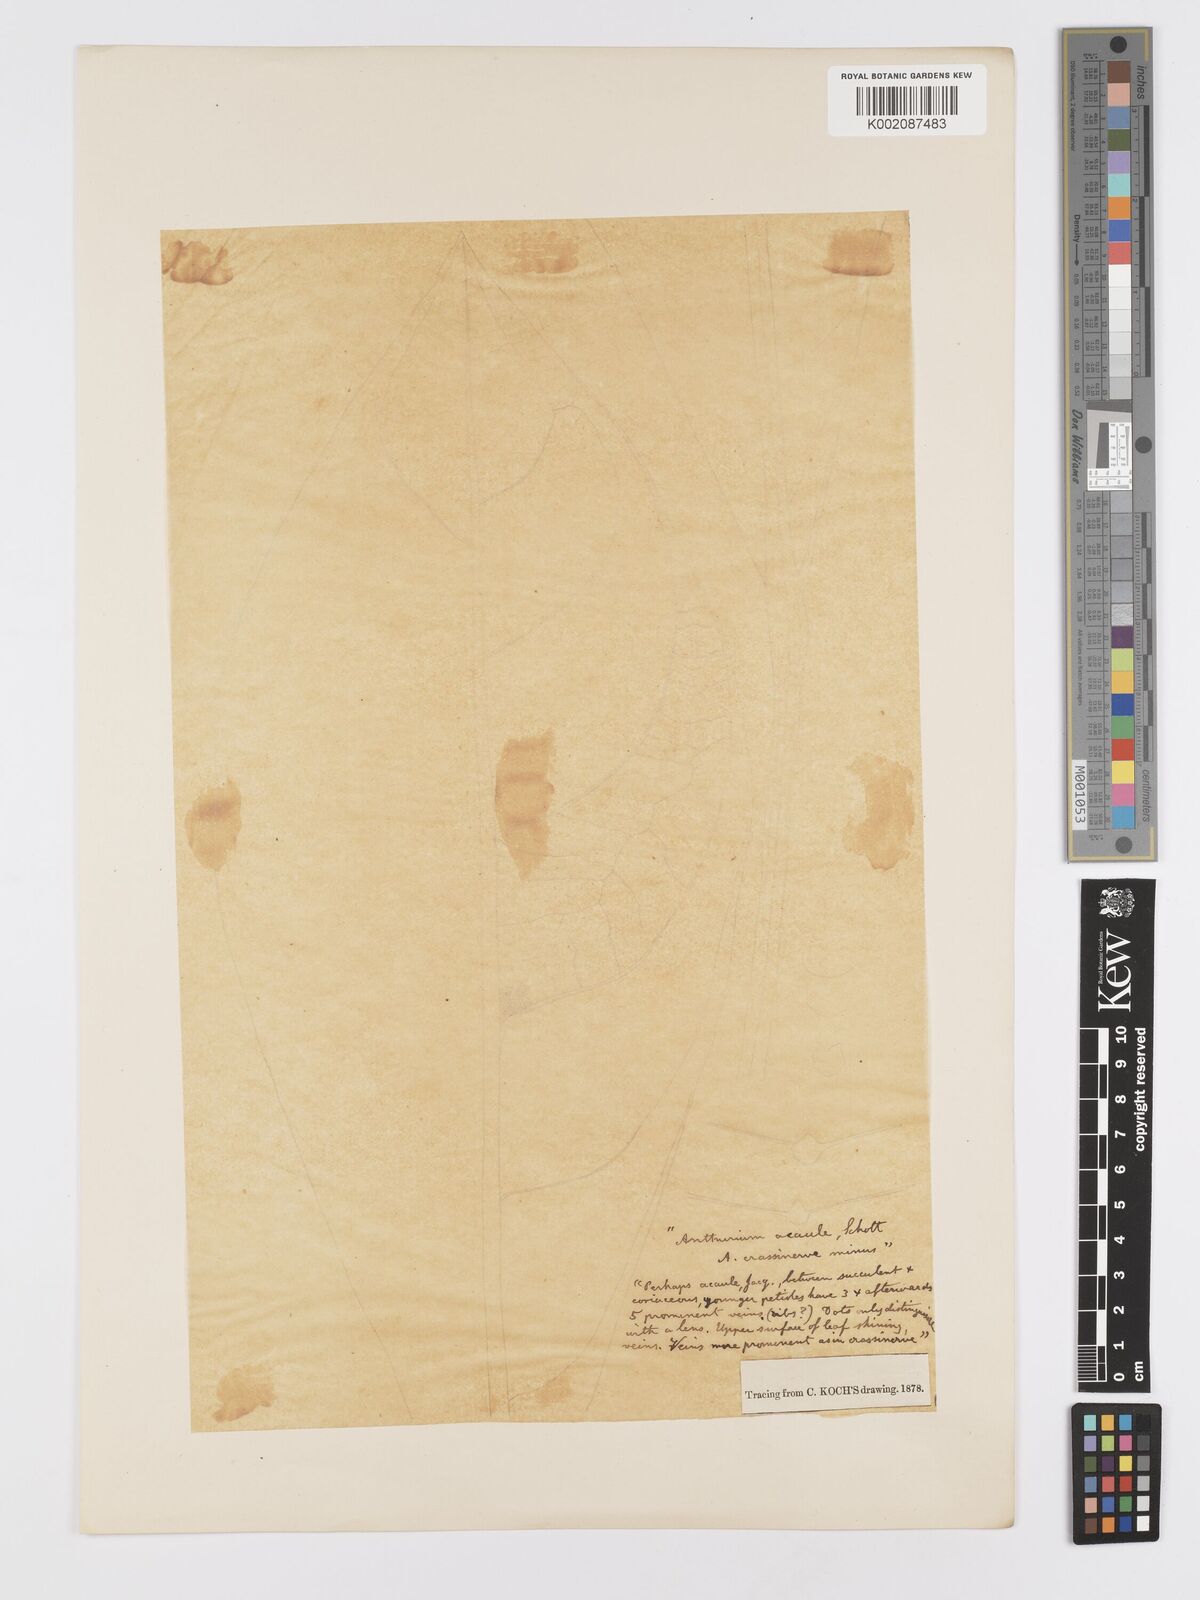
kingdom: Plantae
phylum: Tracheophyta
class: Liliopsida
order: Alismatales
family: Araceae
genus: Anthurium
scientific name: Anthurium crassinervium
